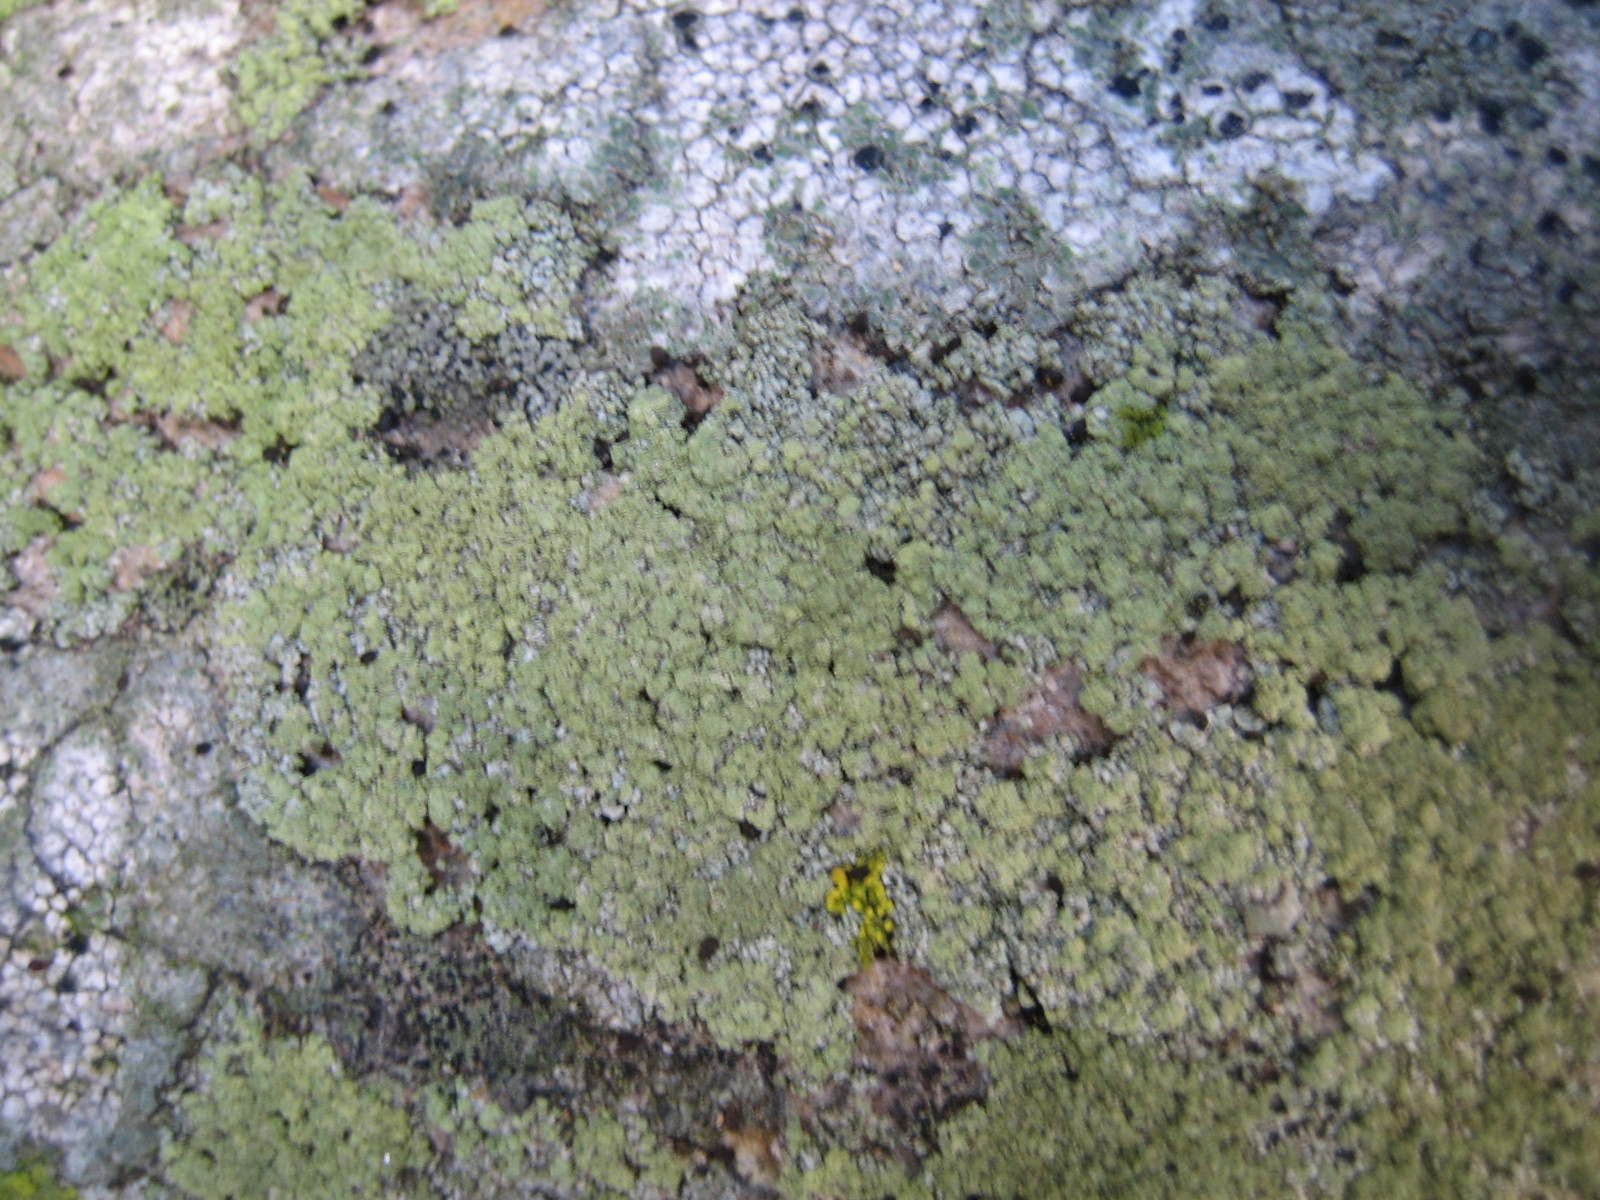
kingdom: Fungi
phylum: Ascomycota
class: Lecanoromycetes
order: Lecanorales
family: Lecanoraceae
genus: Lecidella
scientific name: Lecidella scabra
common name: skurvet skivelav
